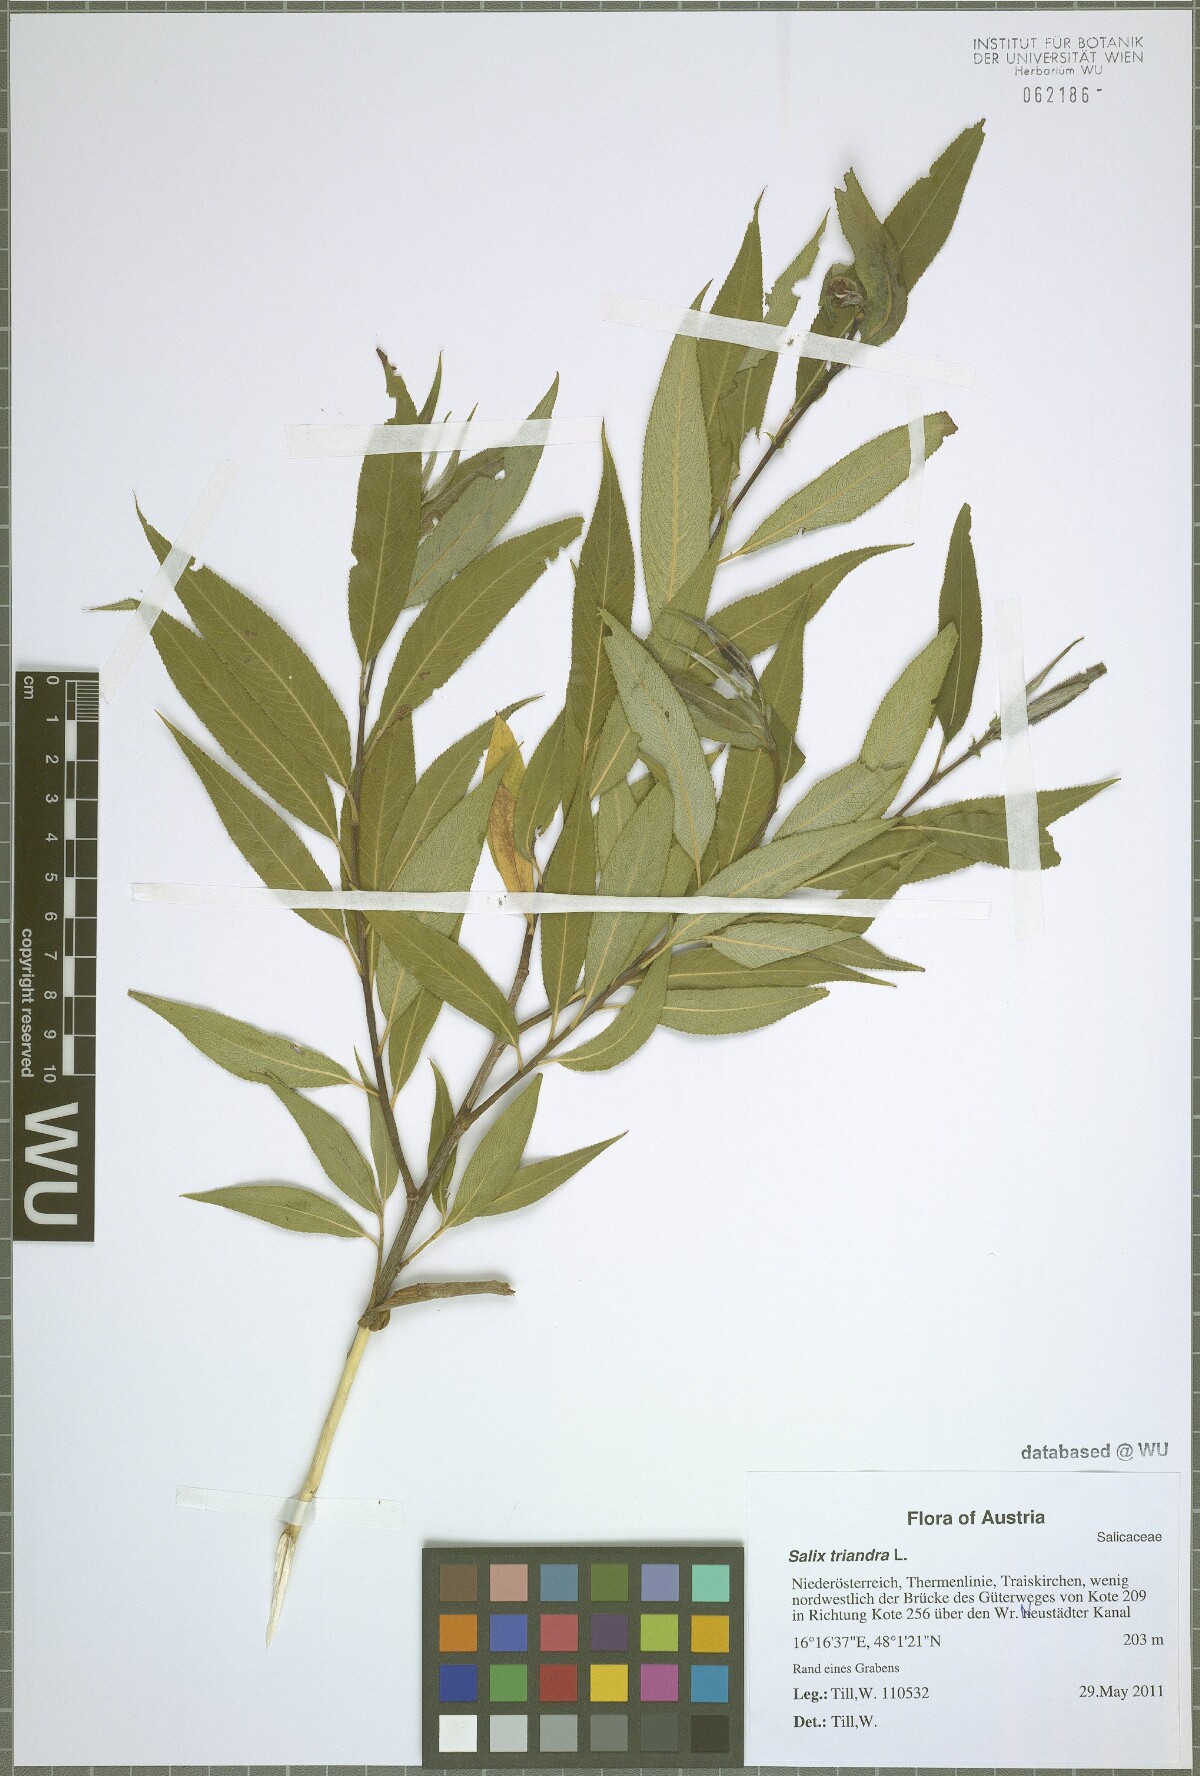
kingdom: Plantae
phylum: Tracheophyta
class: Magnoliopsida
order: Malpighiales
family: Salicaceae
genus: Salix
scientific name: Salix triandra
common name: Almond willow
